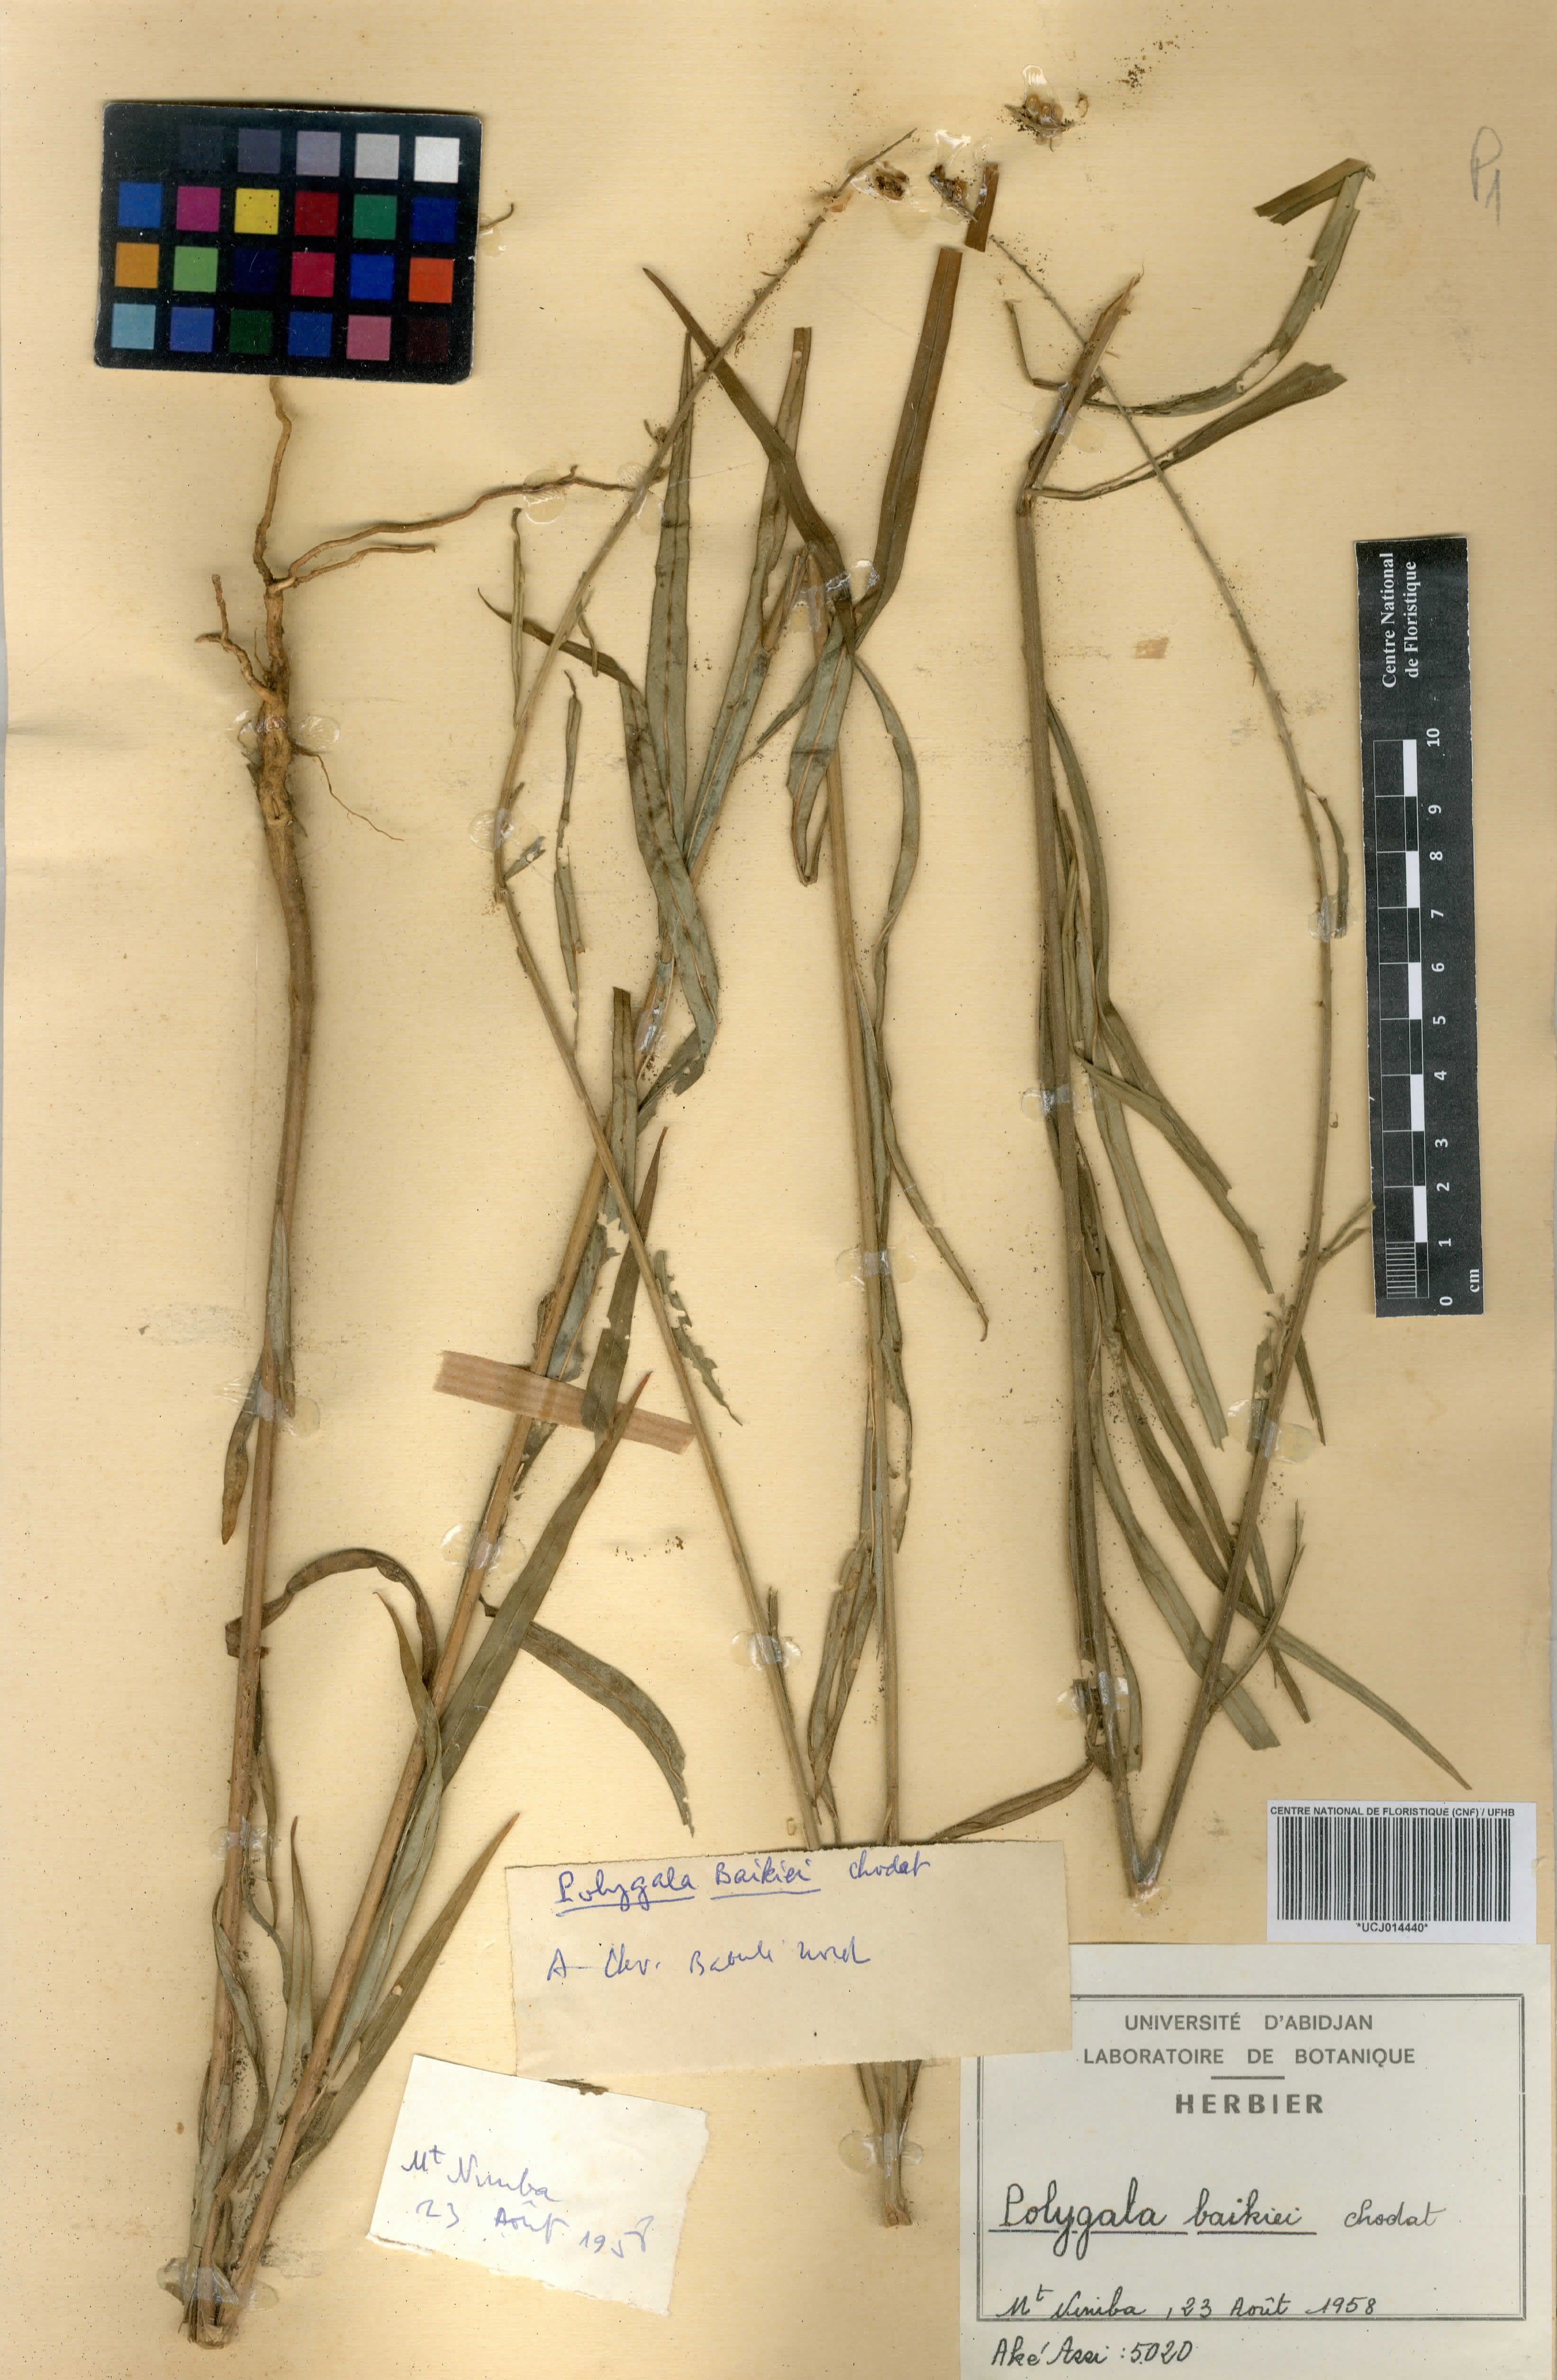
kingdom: Plantae
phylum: Tracheophyta
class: Magnoliopsida
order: Fabales
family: Polygalaceae
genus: Polygala
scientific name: Polygala baikiei
